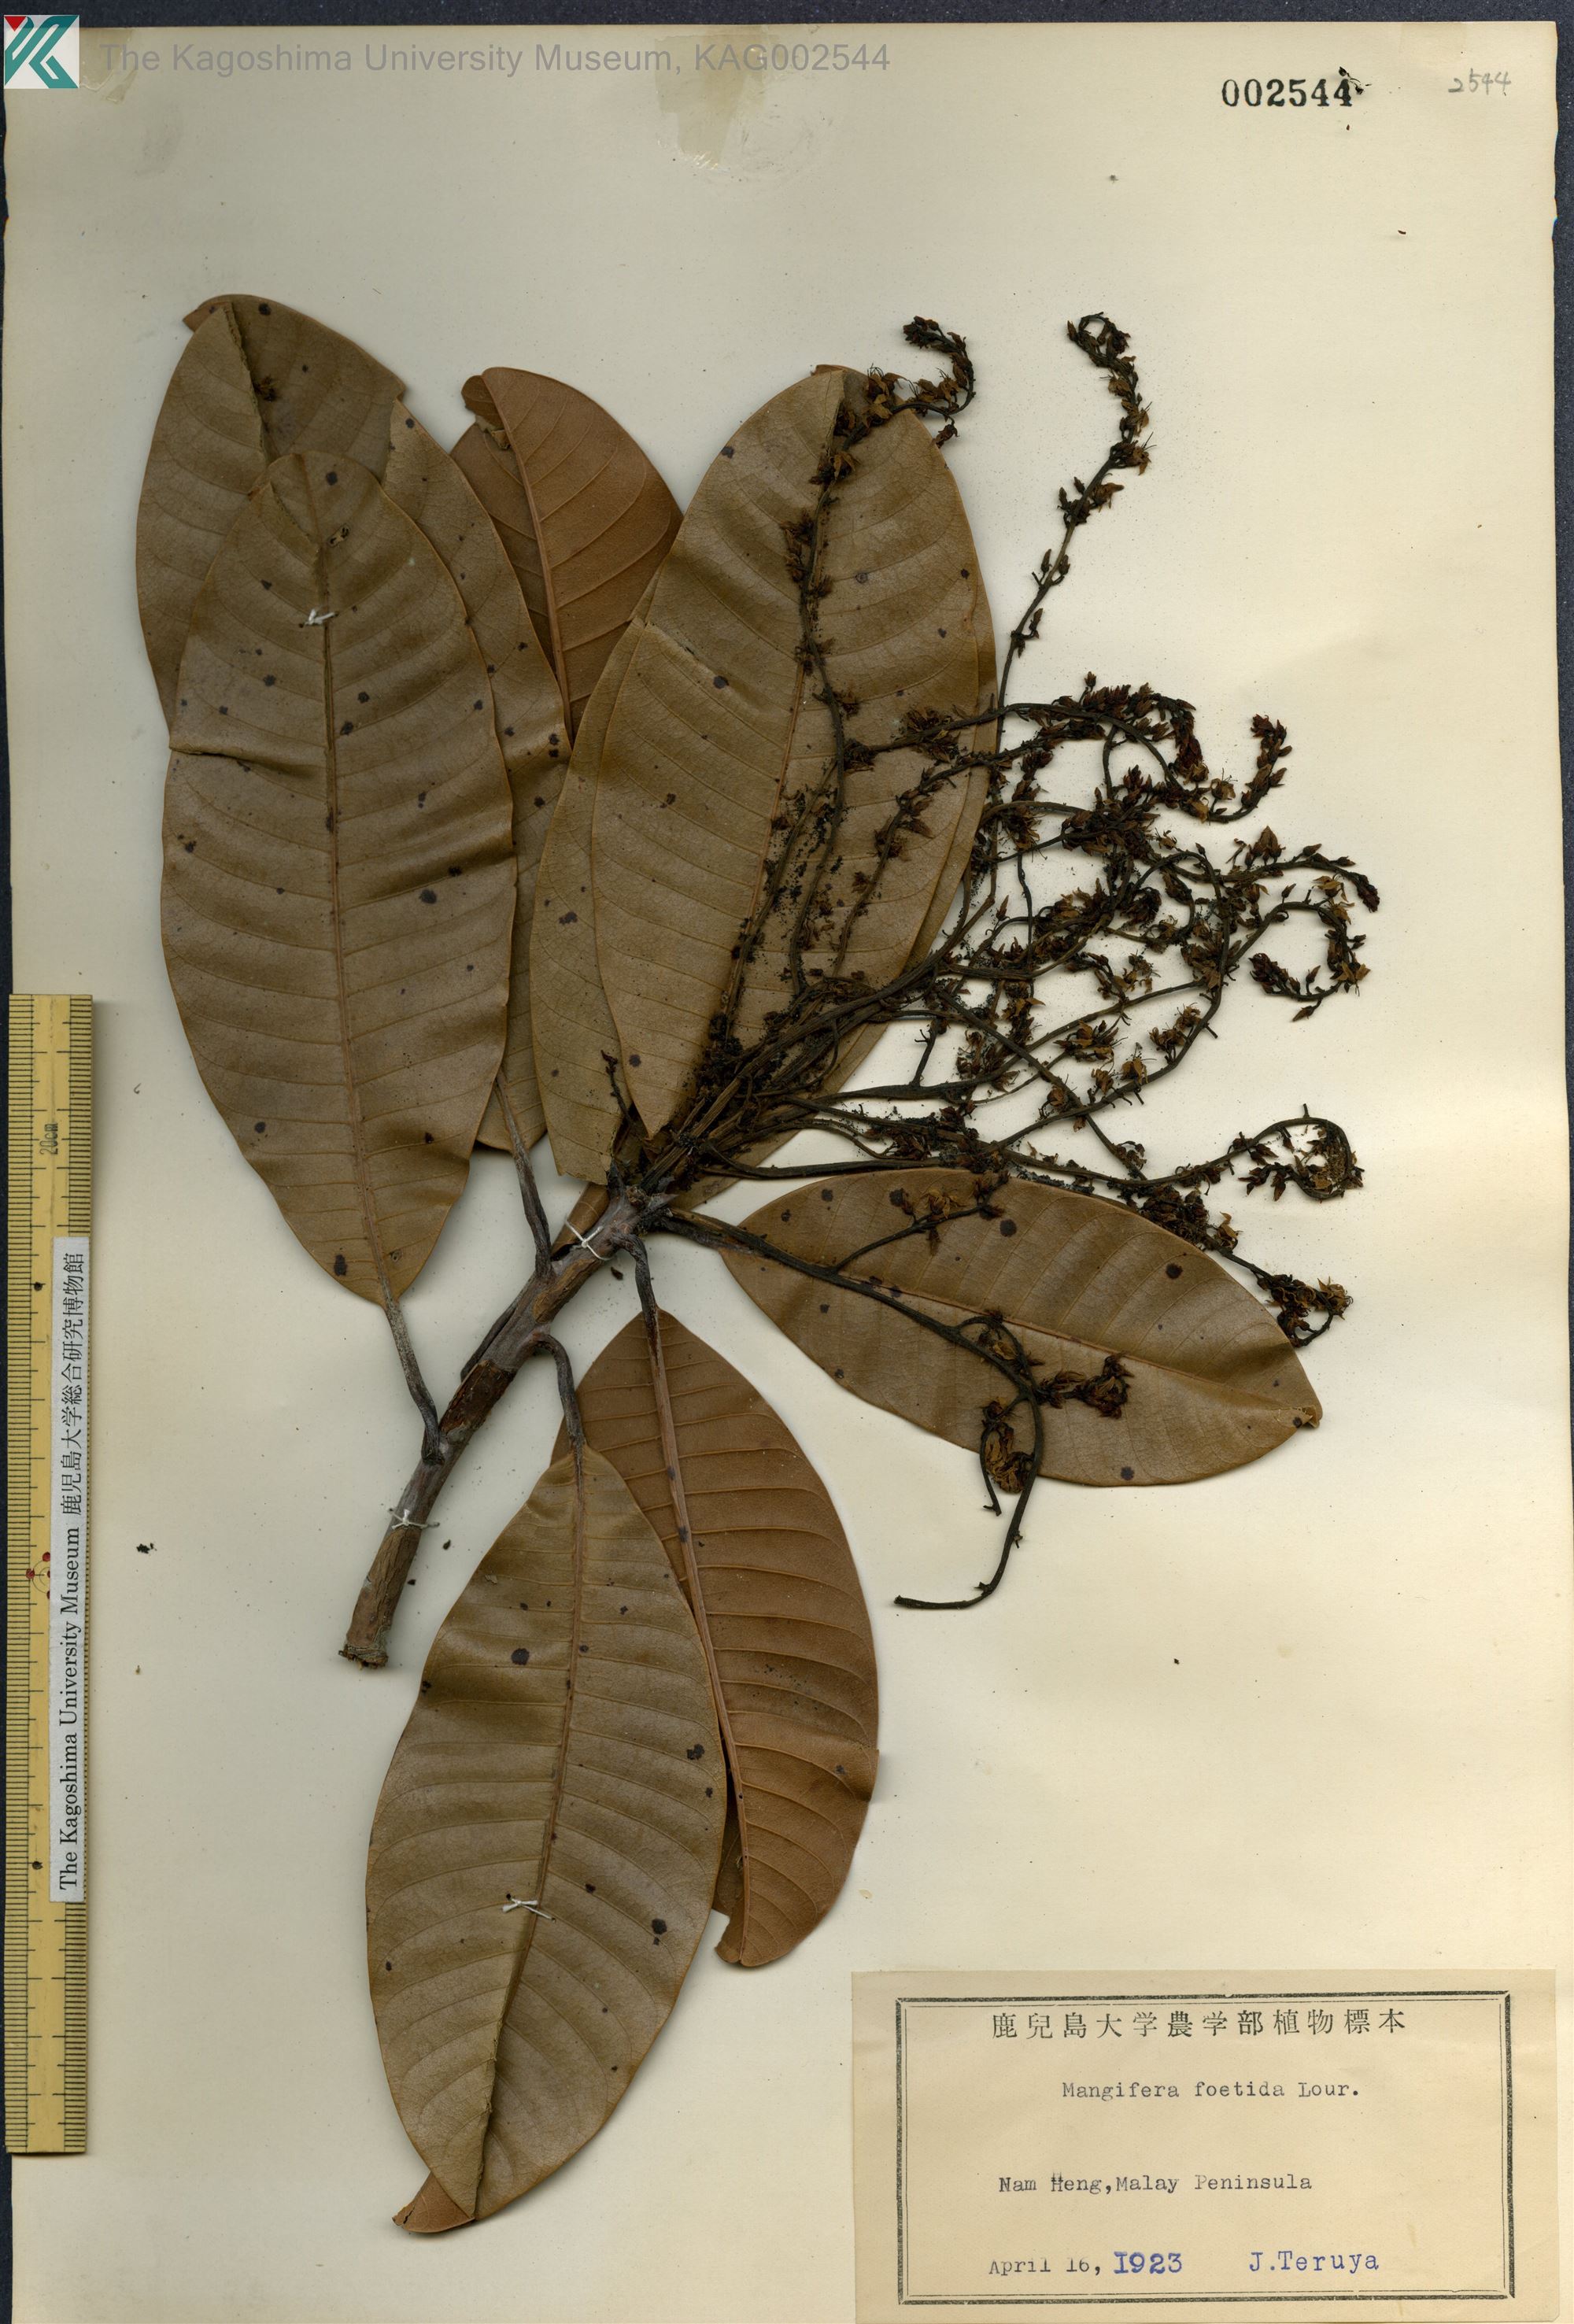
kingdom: Plantae
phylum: Tracheophyta
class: Magnoliopsida
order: Sapindales
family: Anacardiaceae
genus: Mangifera
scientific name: Mangifera foetida
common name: Horse mango
